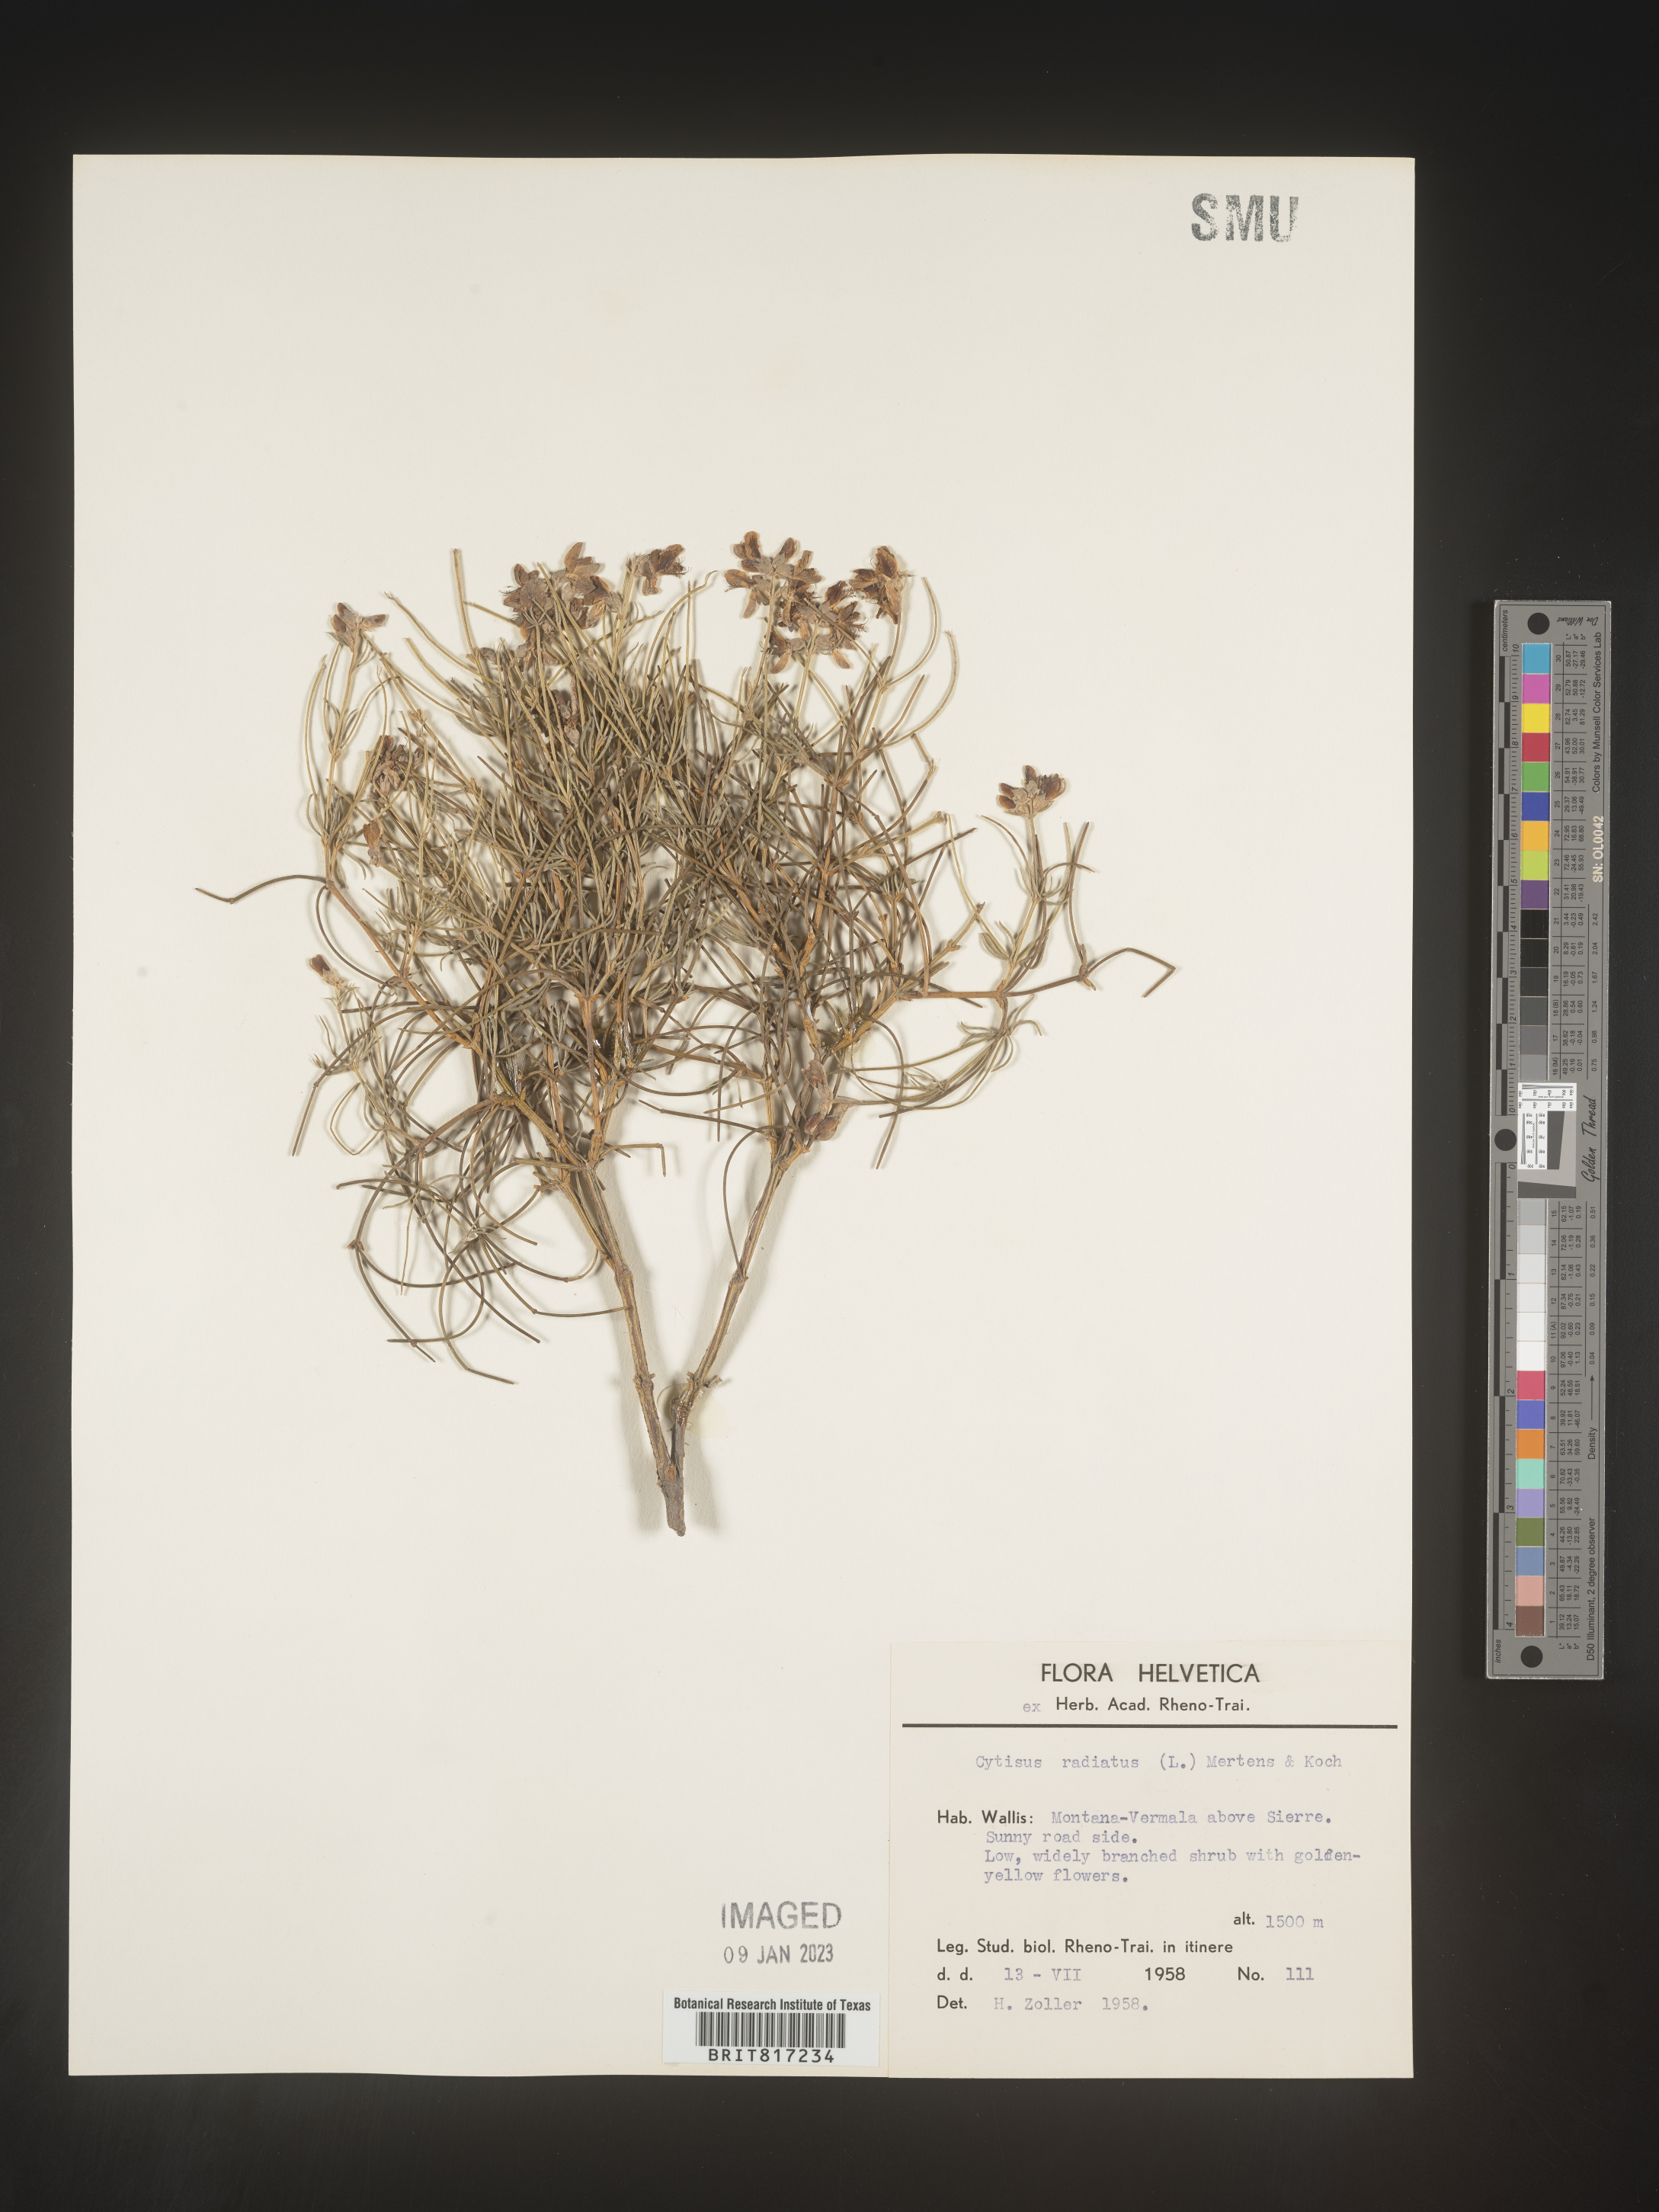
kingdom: Plantae
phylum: Tracheophyta
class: Magnoliopsida
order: Fabales
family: Fabaceae
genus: Cytisus
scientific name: Cytisus
